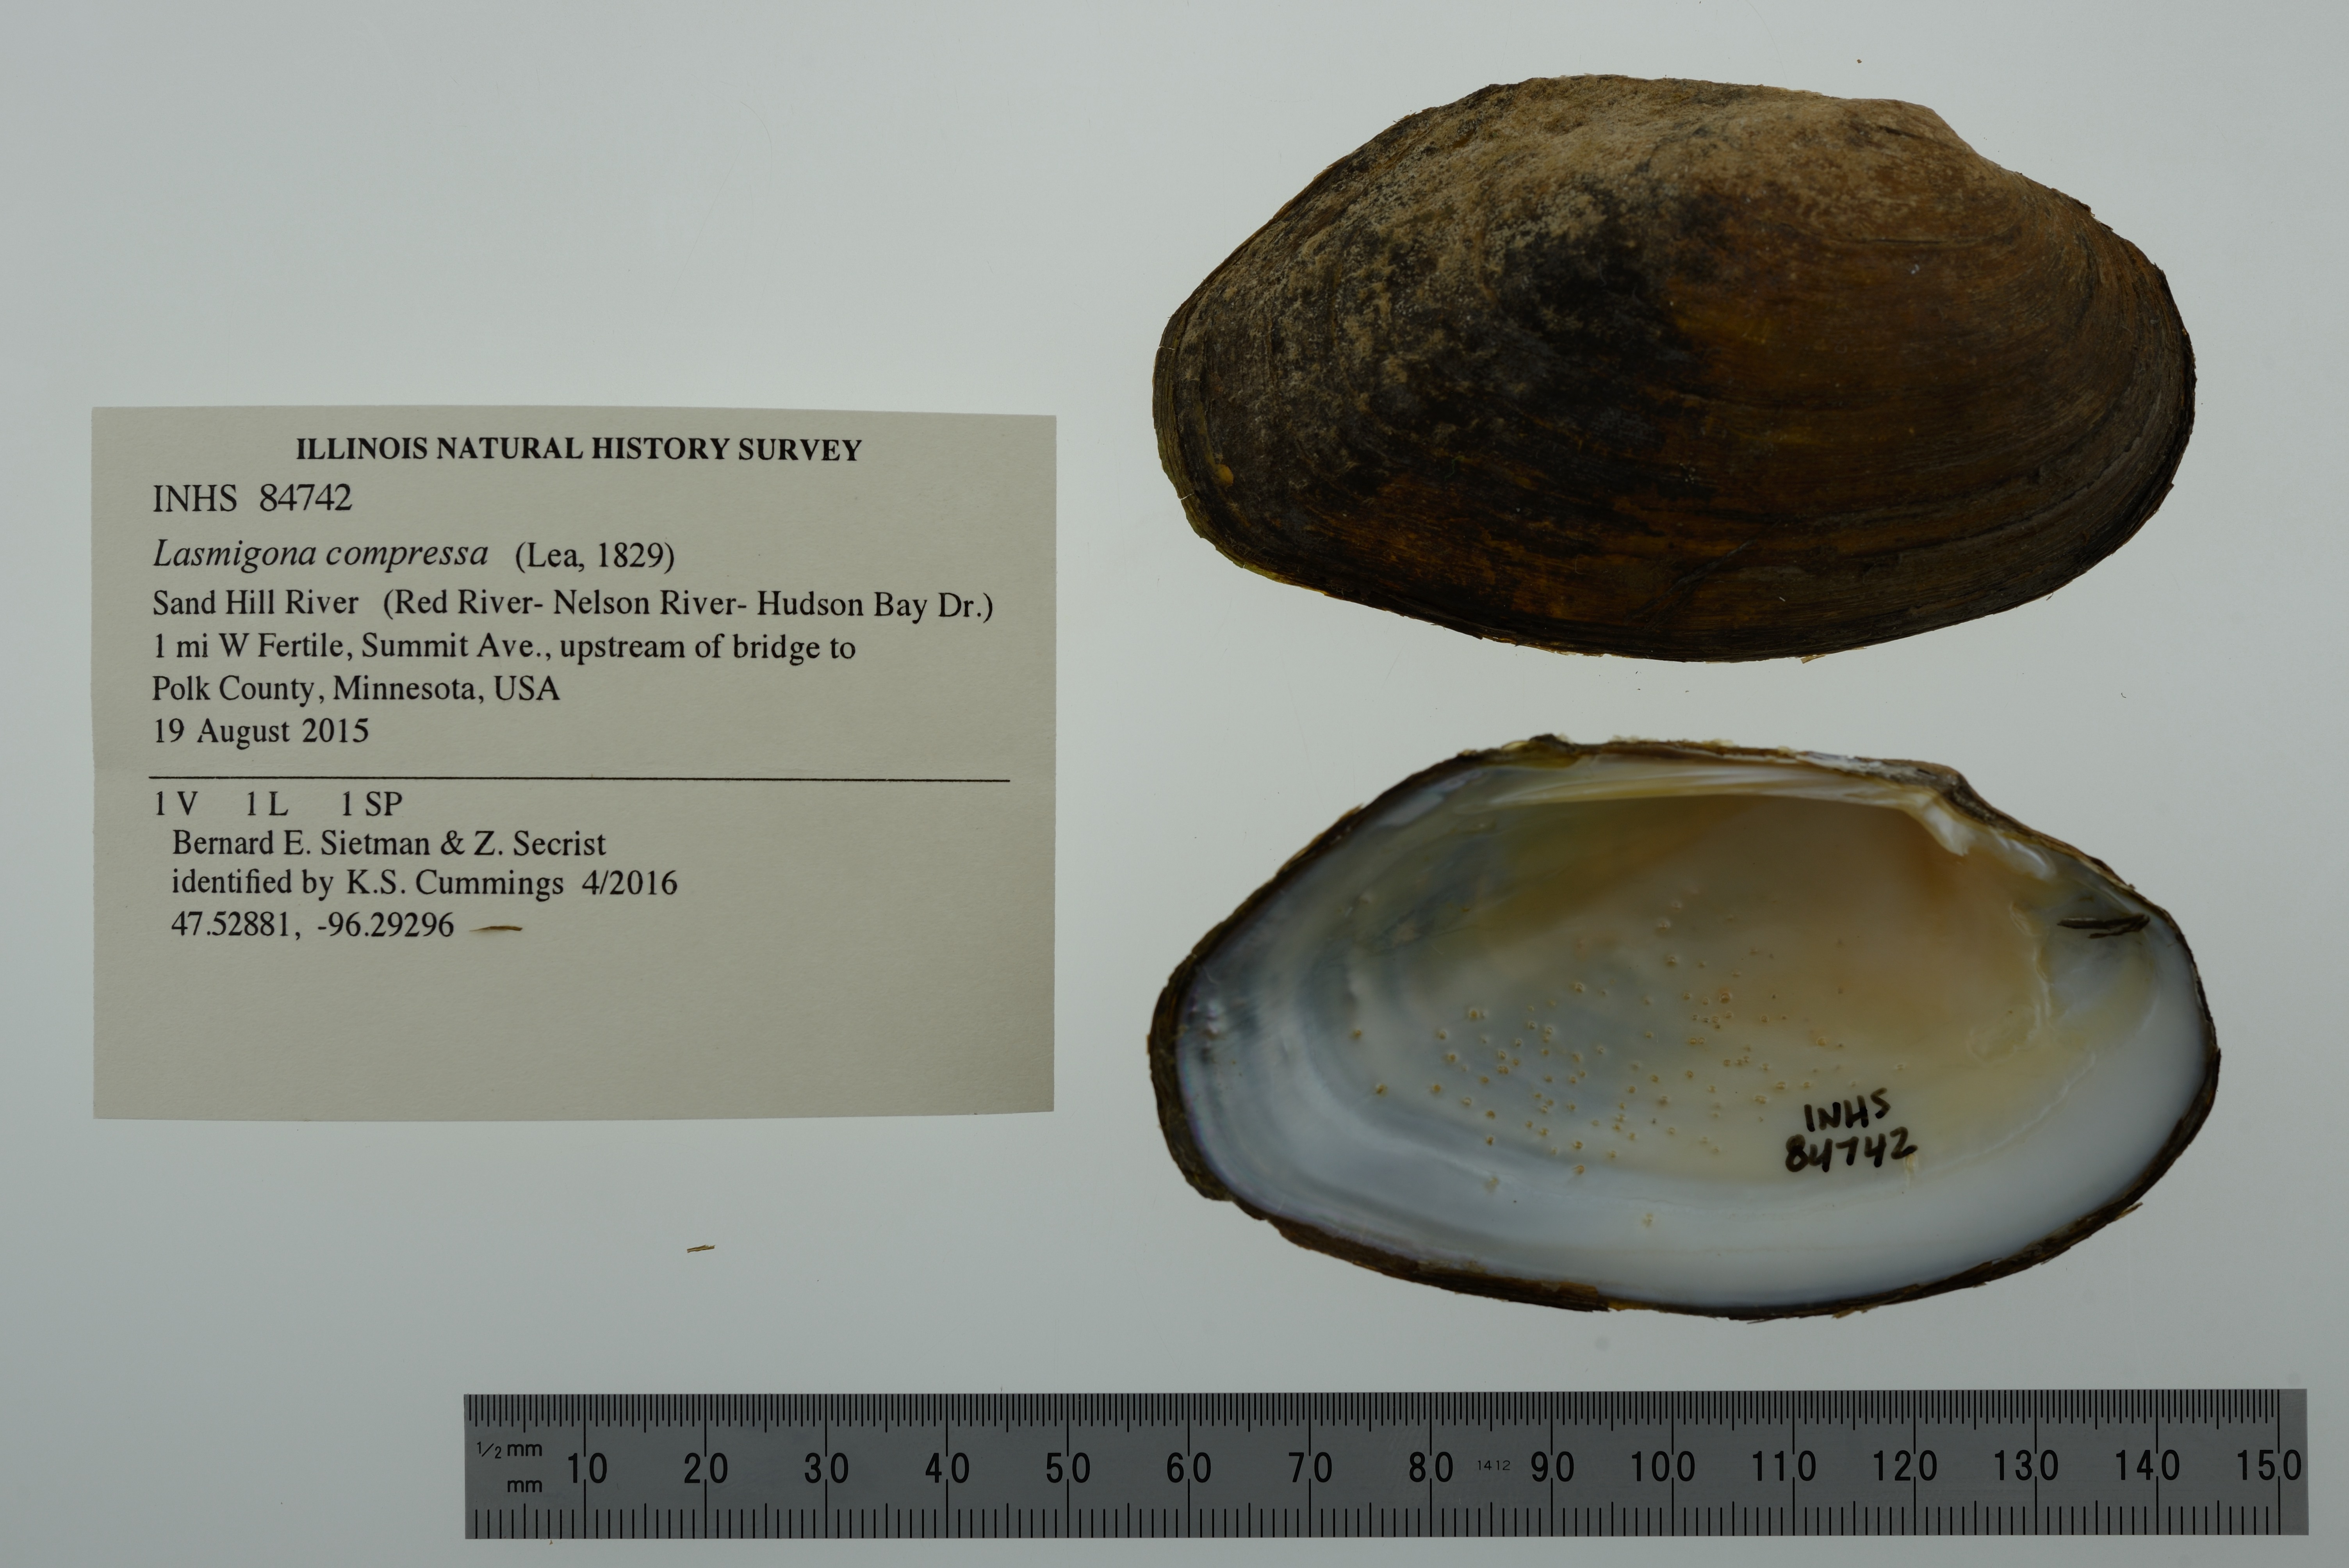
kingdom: Animalia
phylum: Mollusca
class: Bivalvia
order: Unionida
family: Unionidae
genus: Lasmigona
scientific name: Lasmigona compressa
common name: Creek heelsplitter
